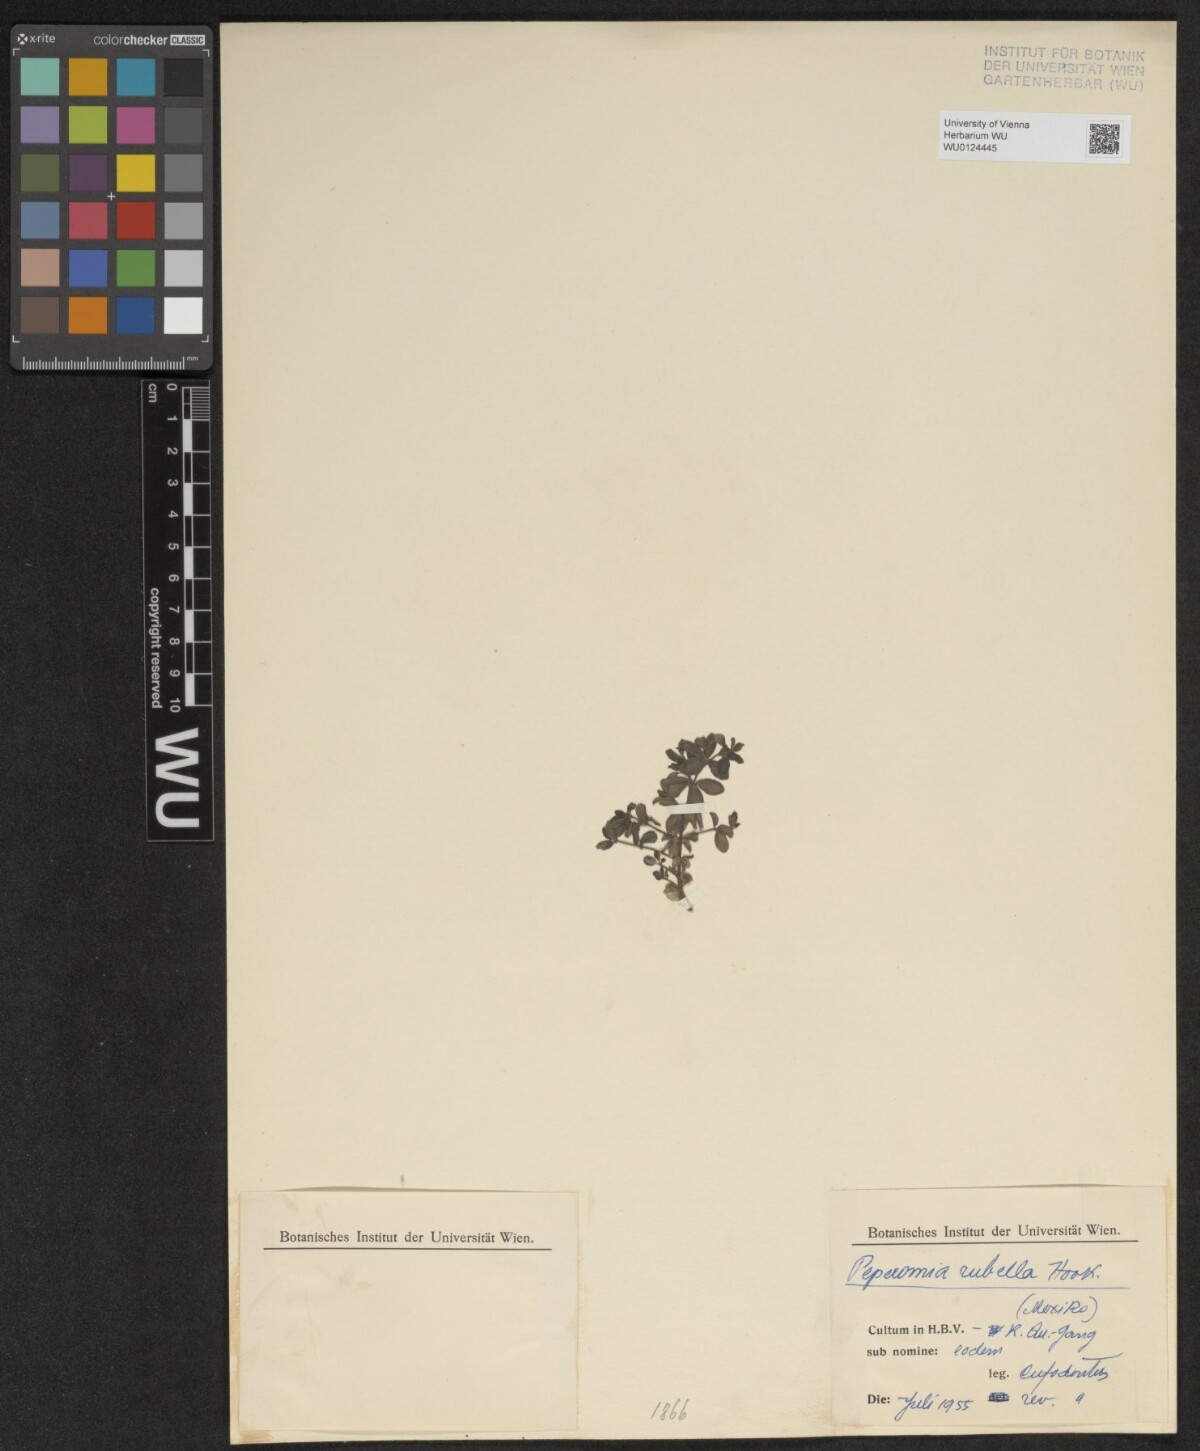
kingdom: Plantae
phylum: Tracheophyta
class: Magnoliopsida
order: Piperales
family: Piperaceae
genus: Peperomia
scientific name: Peperomia verticillata
